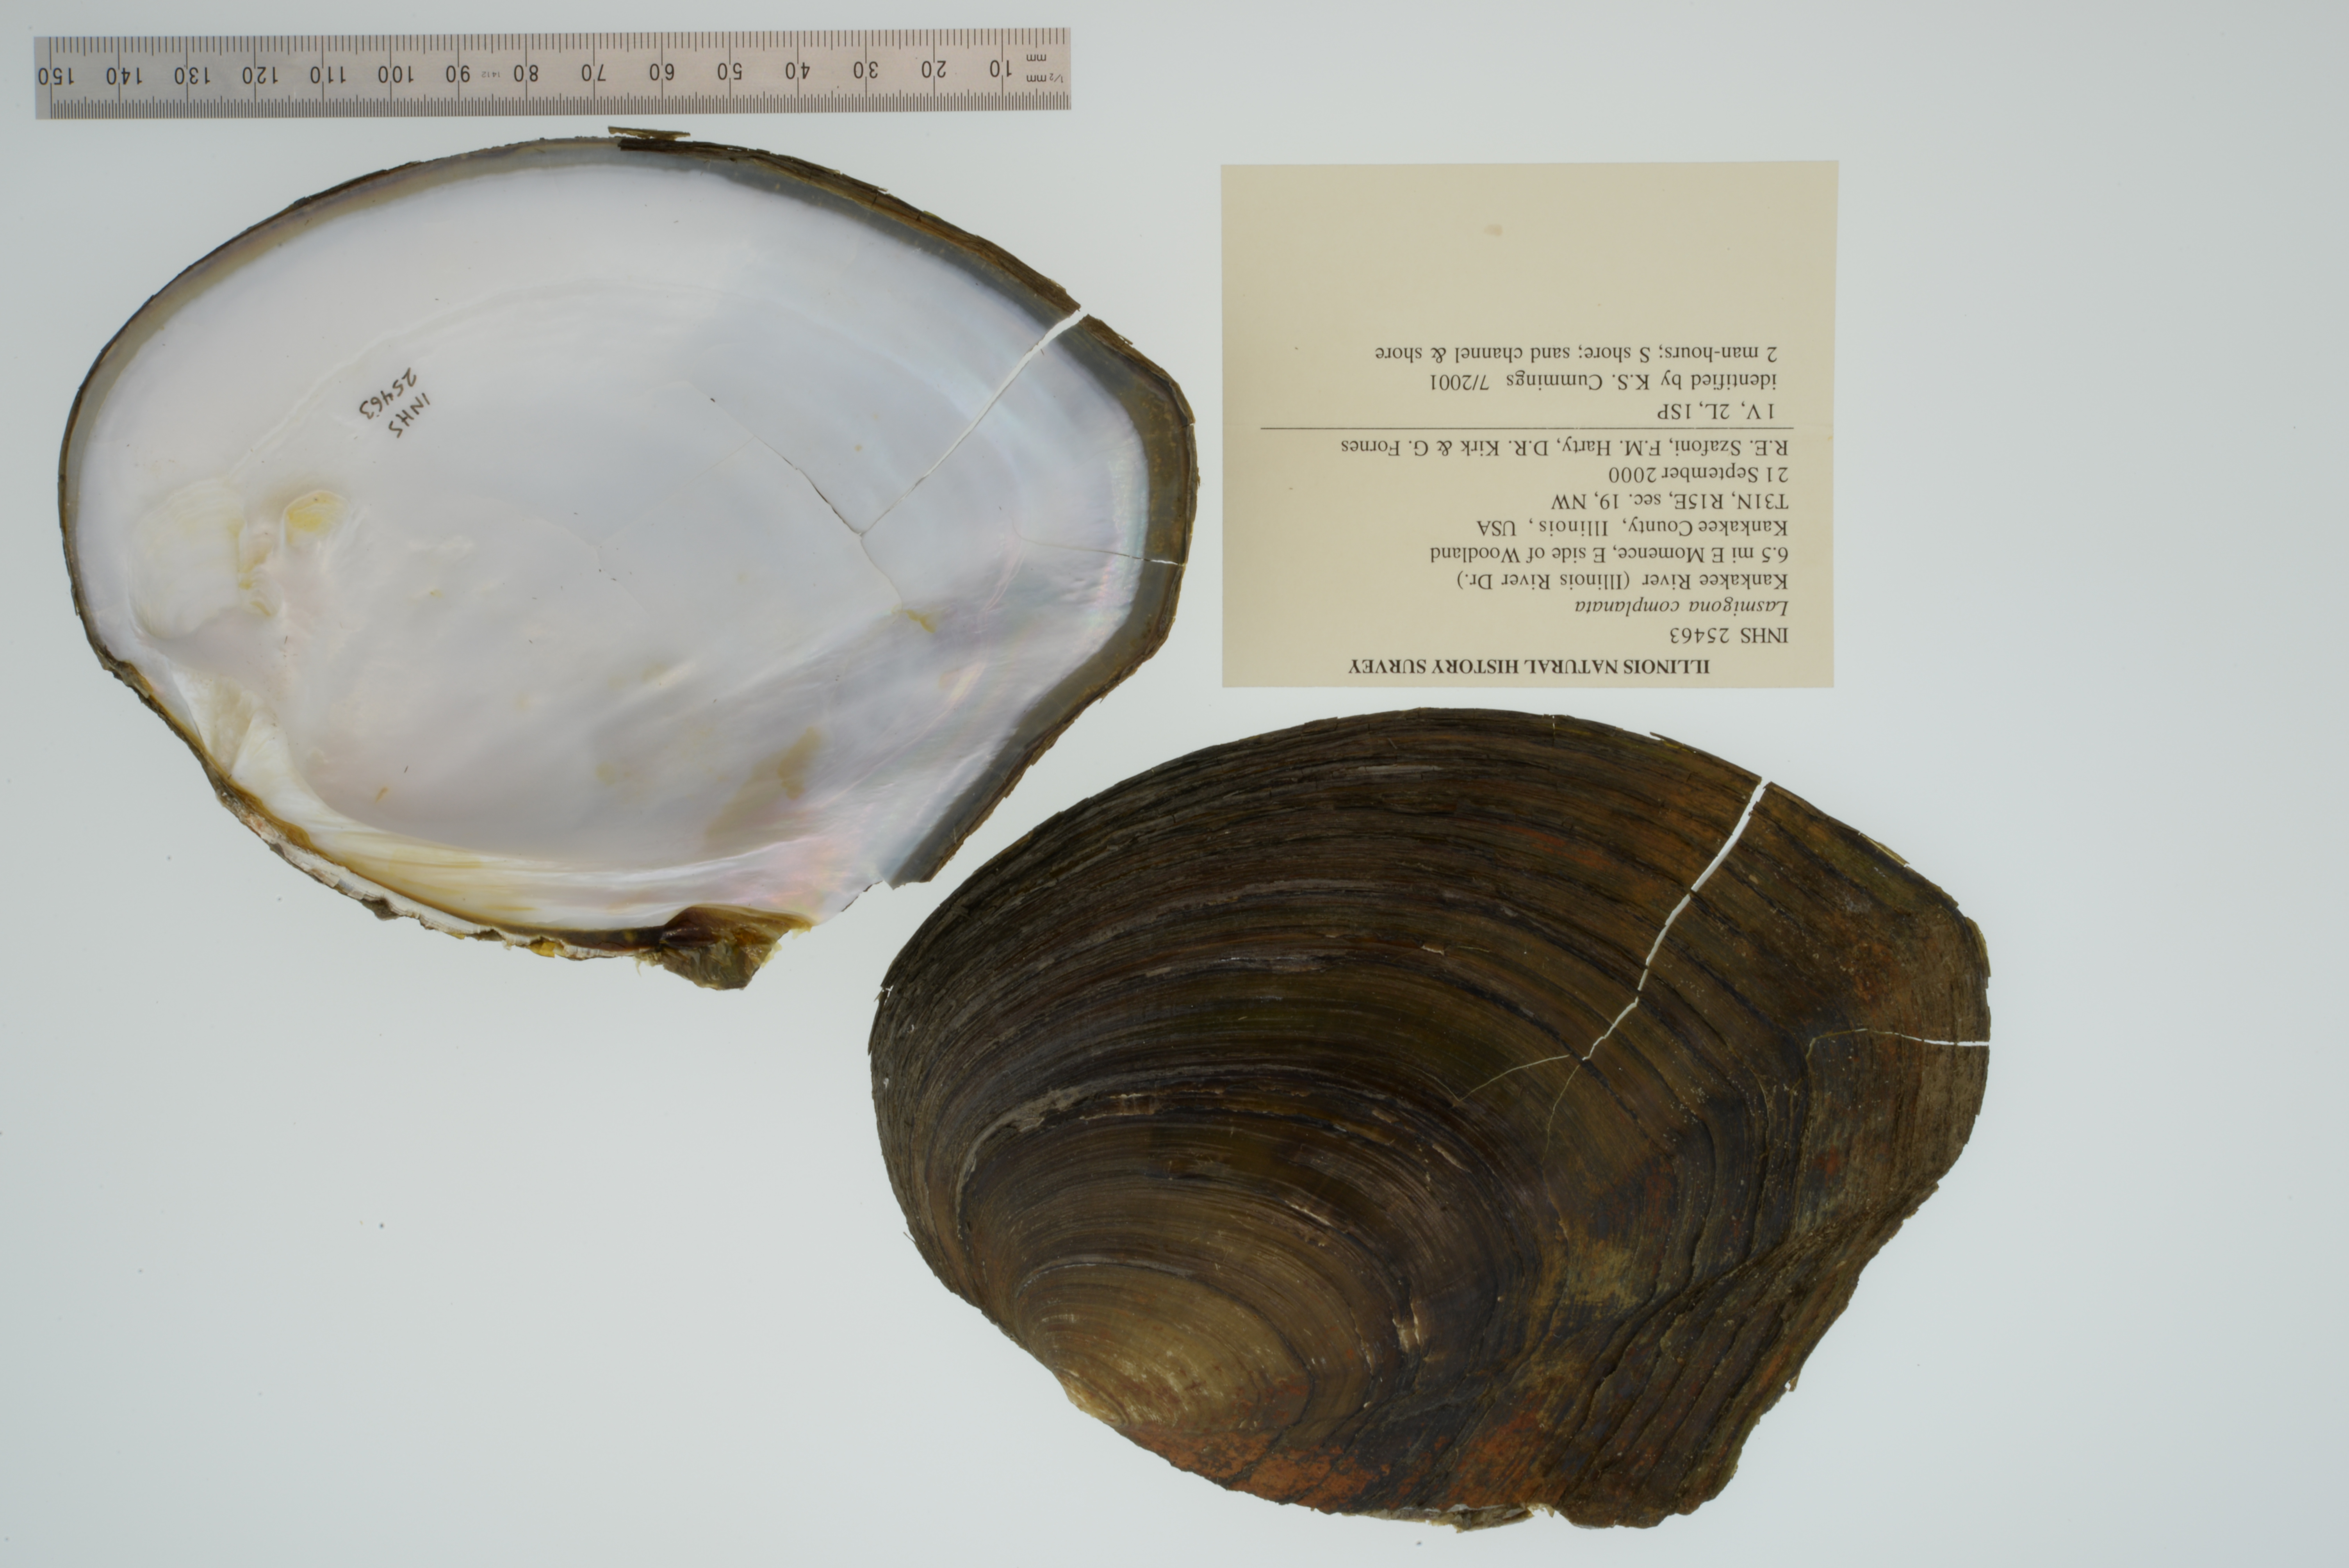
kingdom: Animalia
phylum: Mollusca
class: Bivalvia
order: Unionida
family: Unionidae
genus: Lasmigona
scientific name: Lasmigona complanata
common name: White heelsplitter
